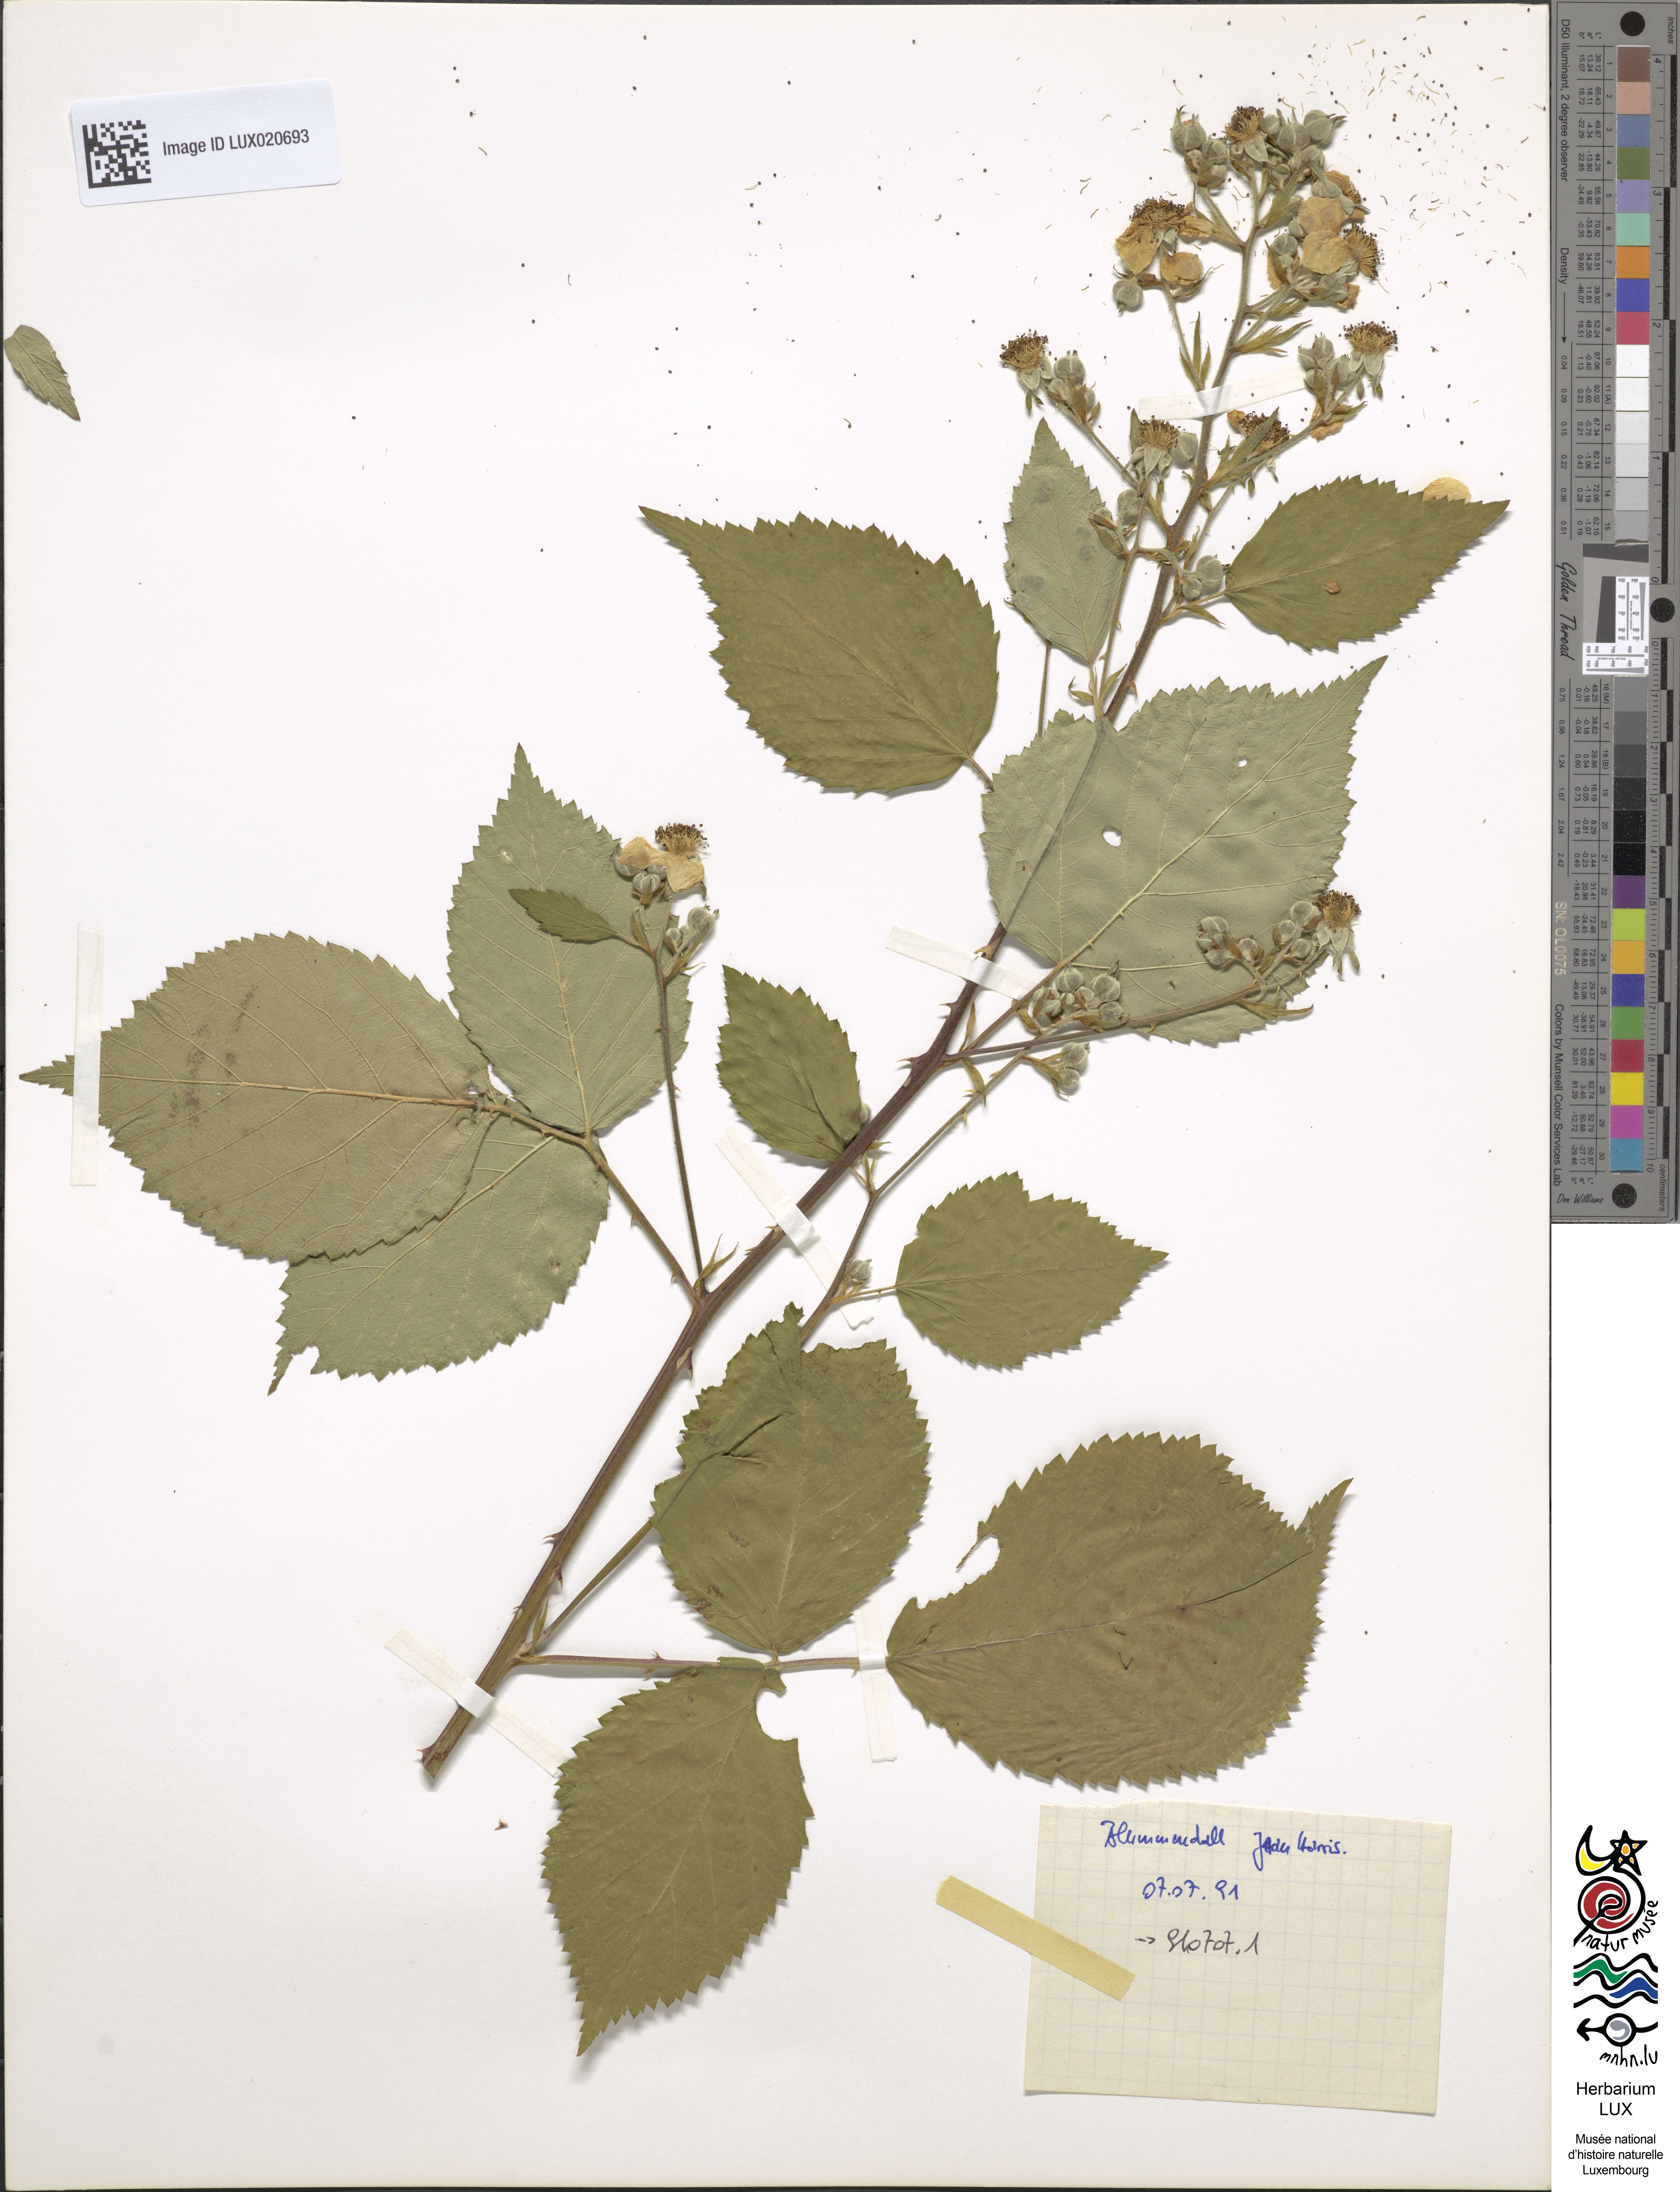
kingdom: Plantae
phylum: Tracheophyta
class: Magnoliopsida
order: Rosales
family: Rosaceae
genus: Rubus
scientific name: Rubus grabowskii
